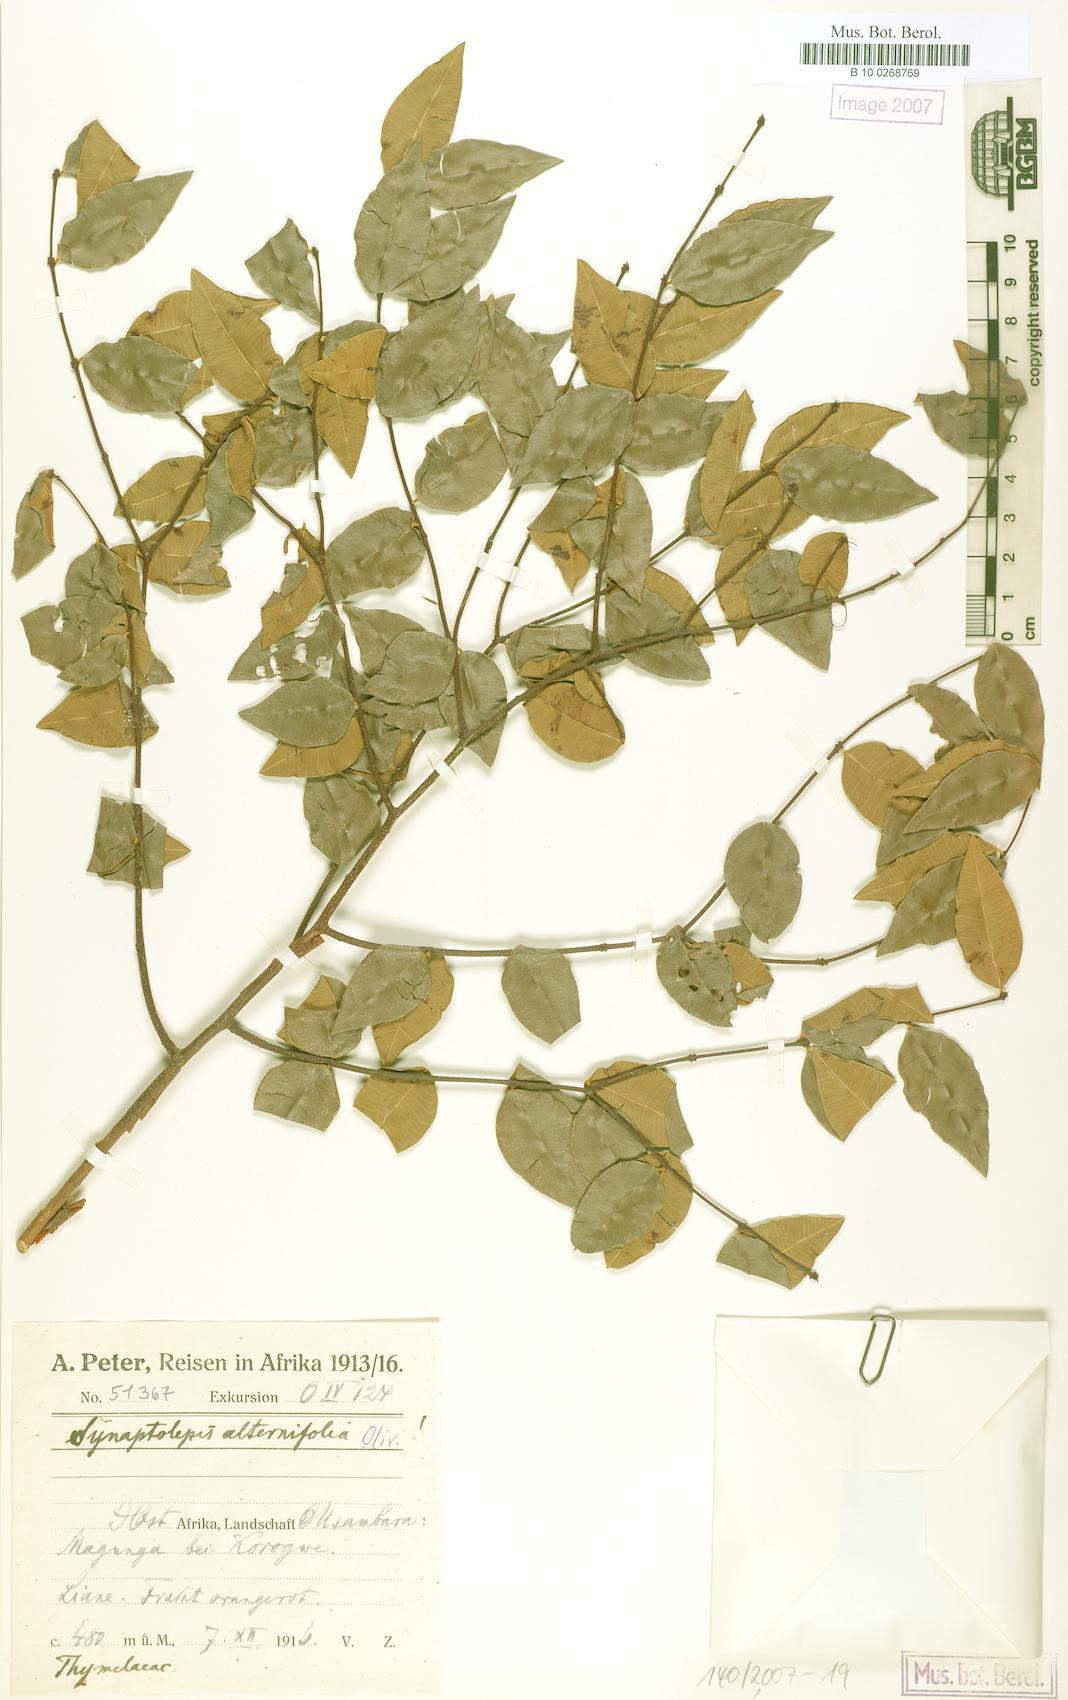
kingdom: Plantae
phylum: Tracheophyta
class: Magnoliopsida
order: Malvales
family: Thymelaeaceae
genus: Synaptolepis
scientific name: Synaptolepis alternifolia
